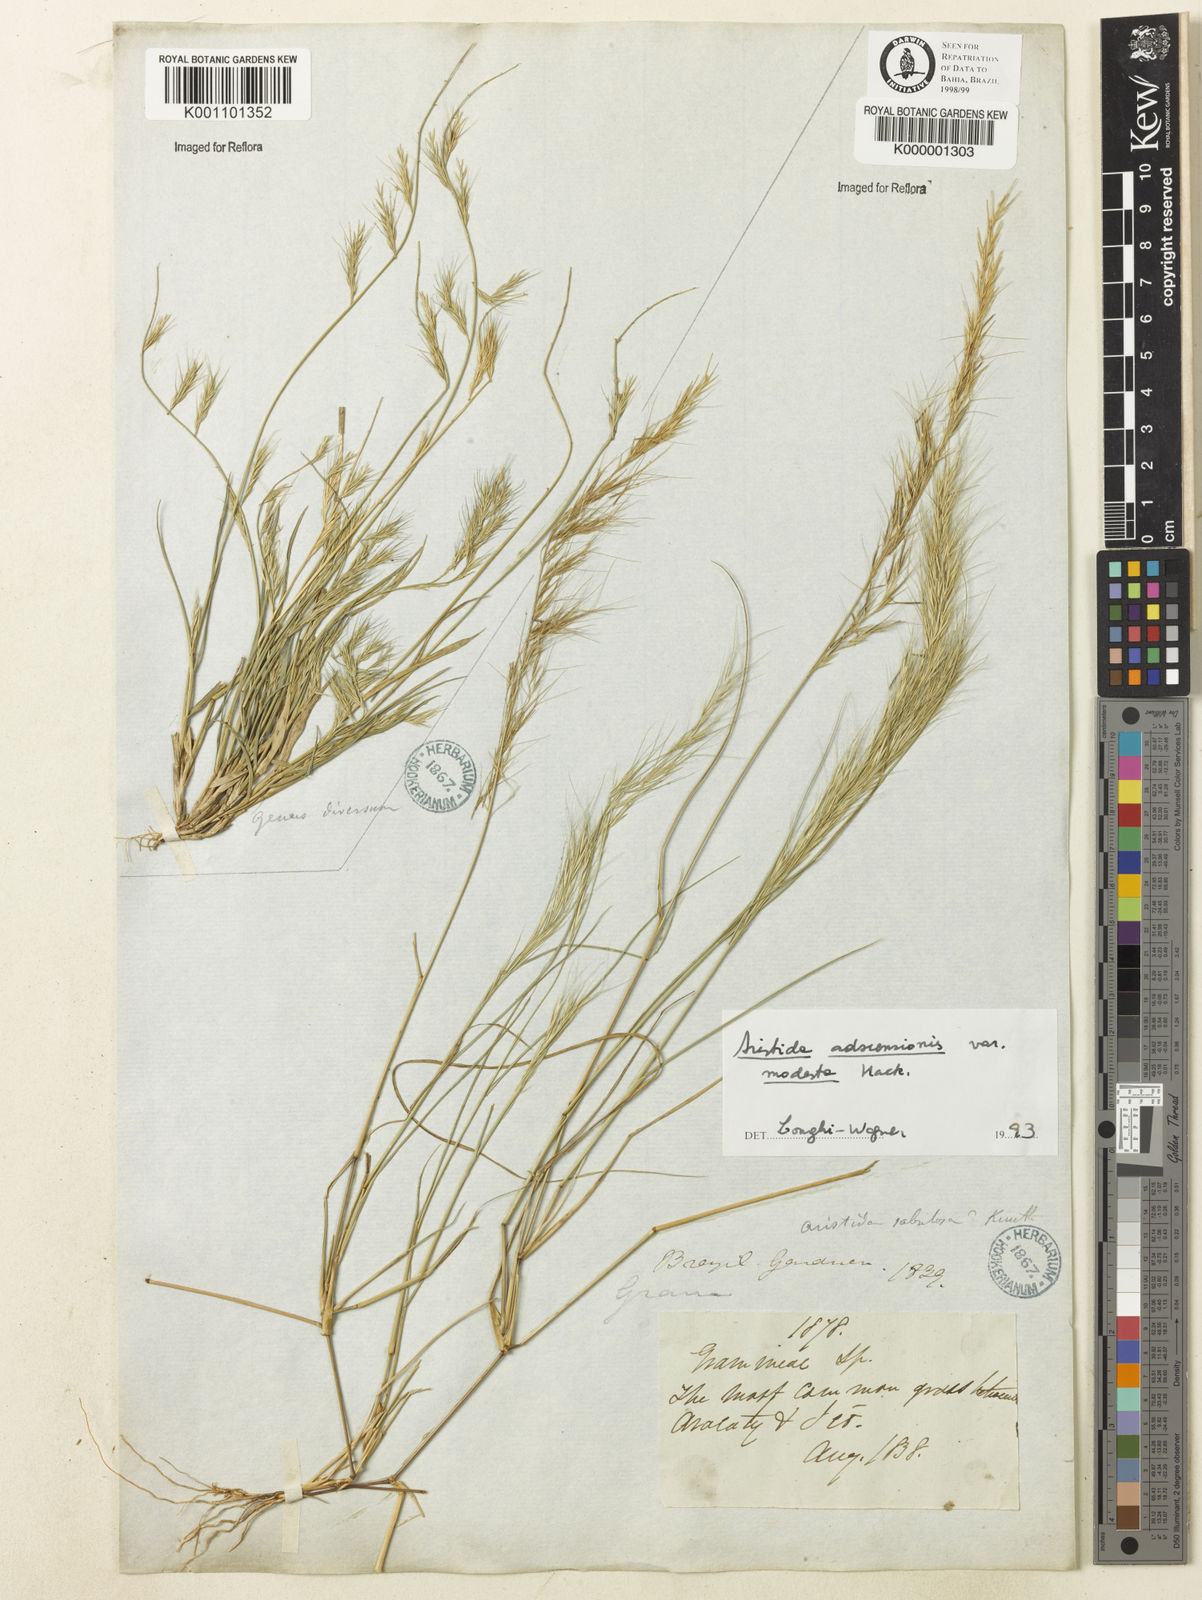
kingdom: Plantae
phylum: Tracheophyta
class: Liliopsida
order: Poales
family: Poaceae
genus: Aristida
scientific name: Aristida adscensionis
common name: Sixweeks threeawn
